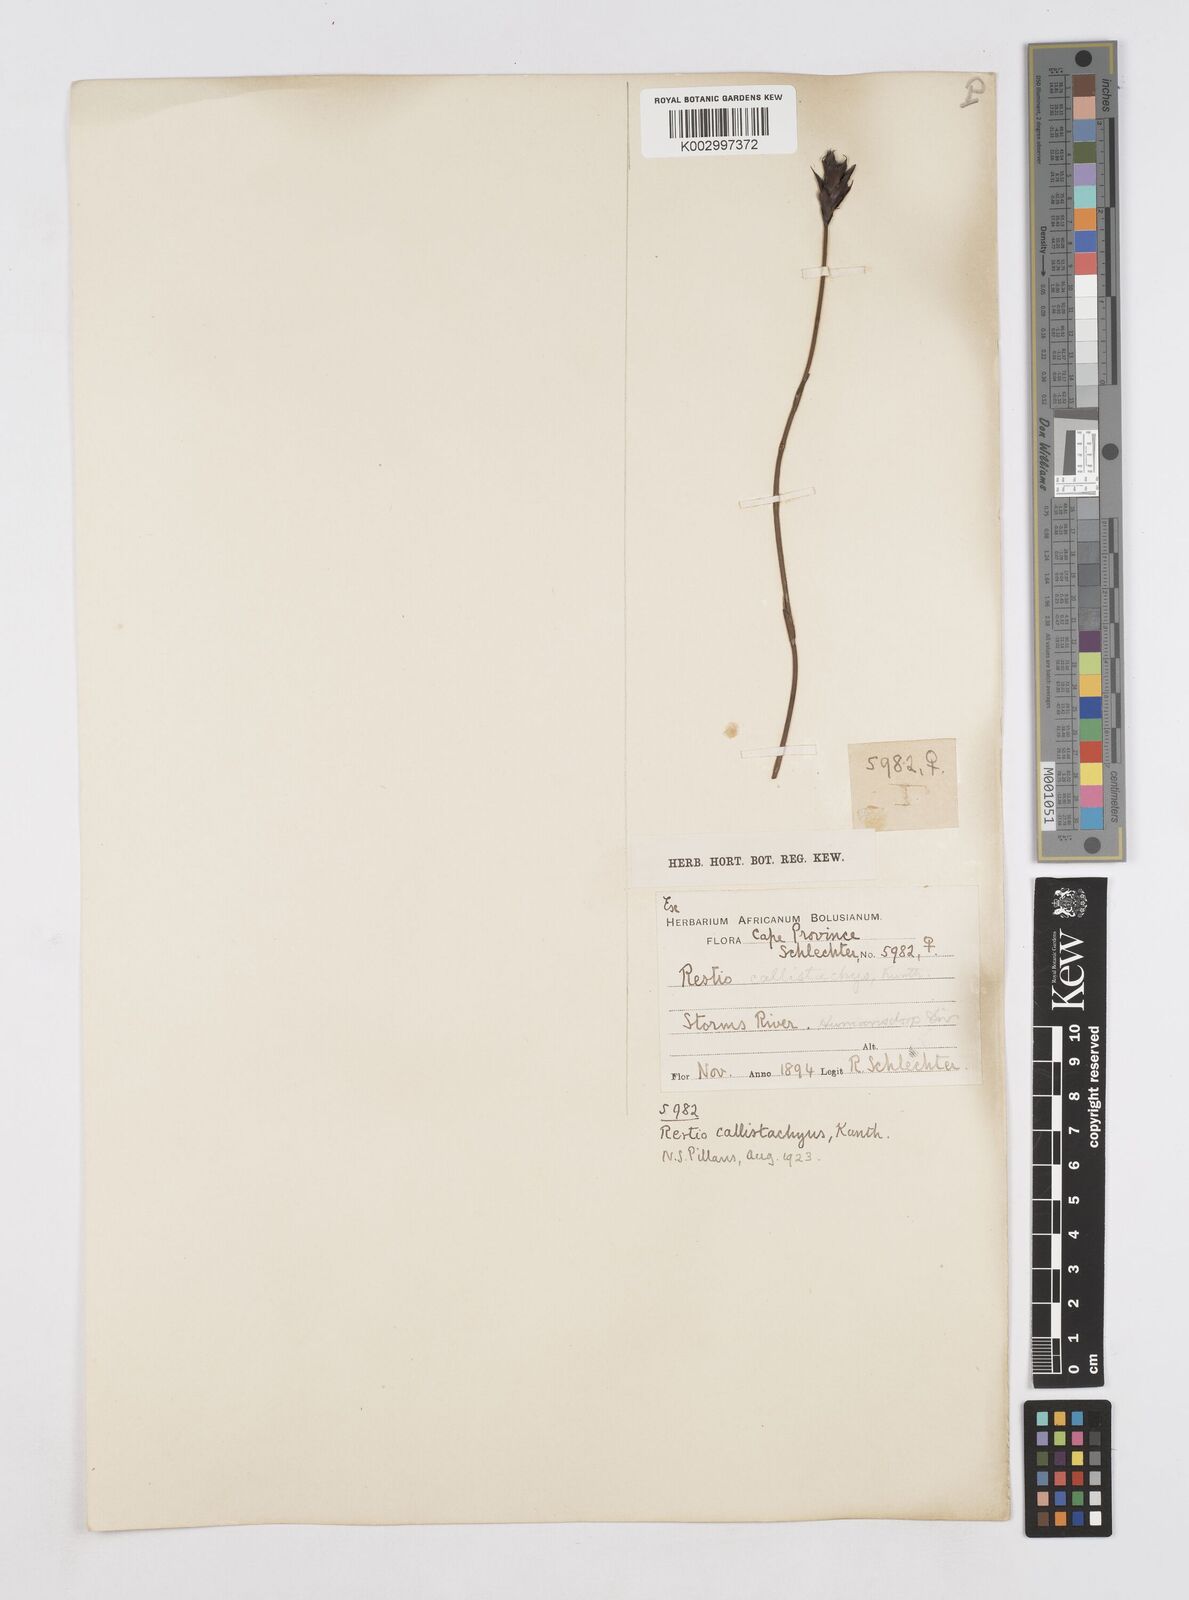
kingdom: Plantae
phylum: Tracheophyta
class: Liliopsida
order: Poales
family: Restionaceae
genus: Platycaulos
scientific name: Platycaulos callistachyus
